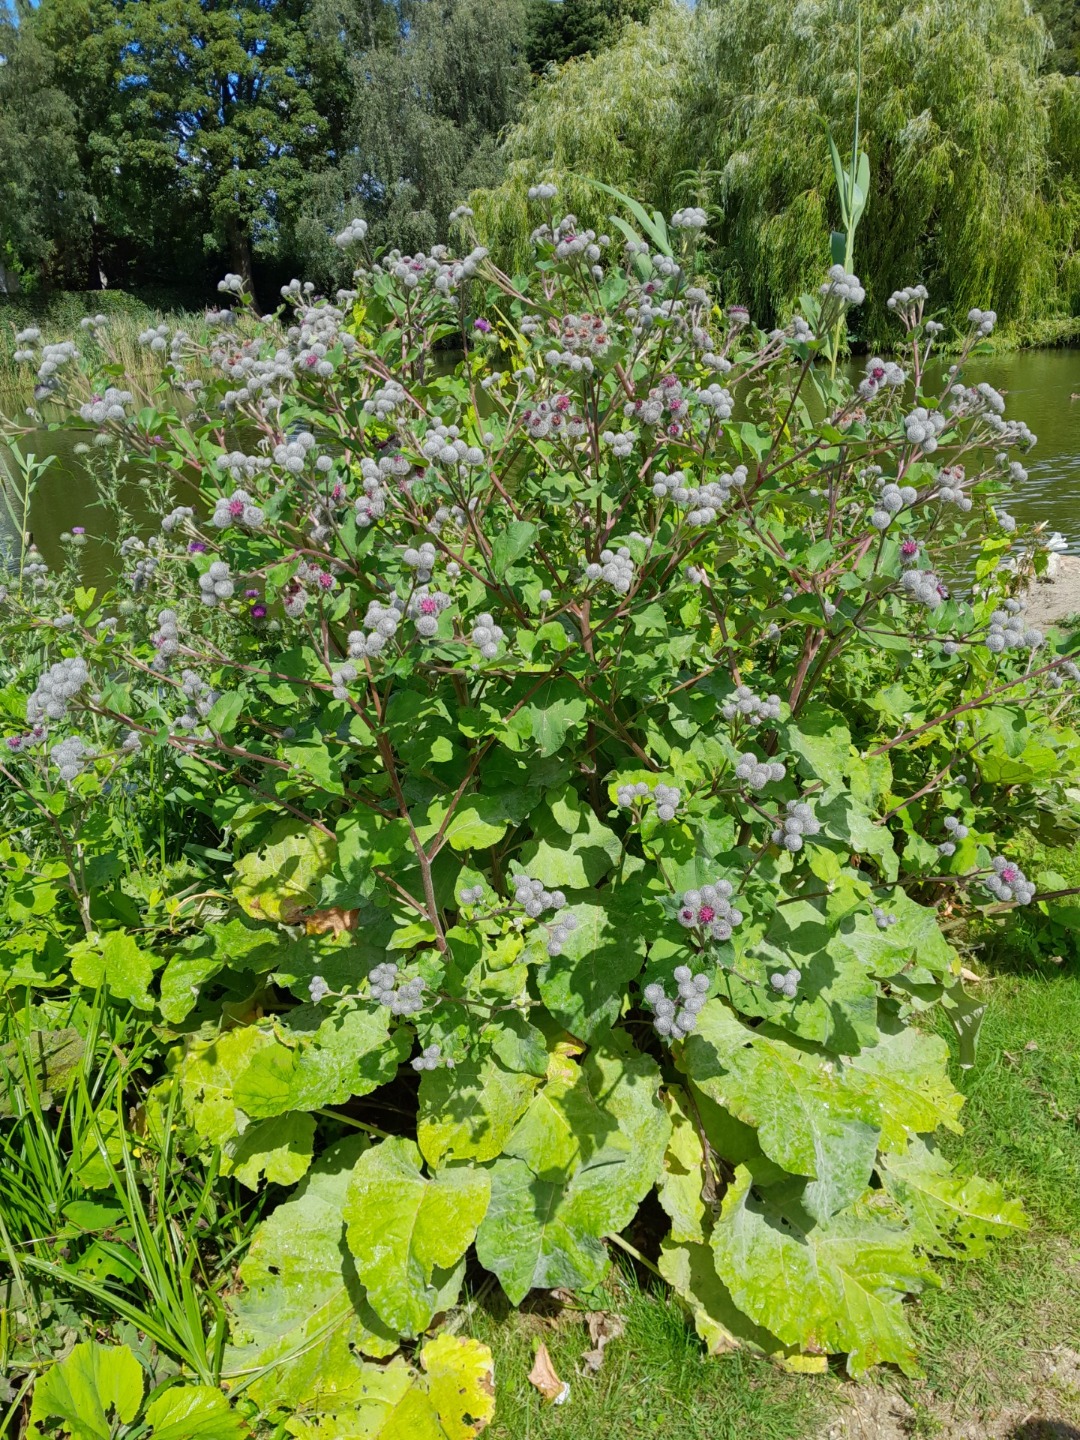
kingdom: Plantae
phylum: Tracheophyta
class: Magnoliopsida
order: Asterales
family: Asteraceae
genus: Arctium
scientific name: Arctium tomentosum
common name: Filtet burre
